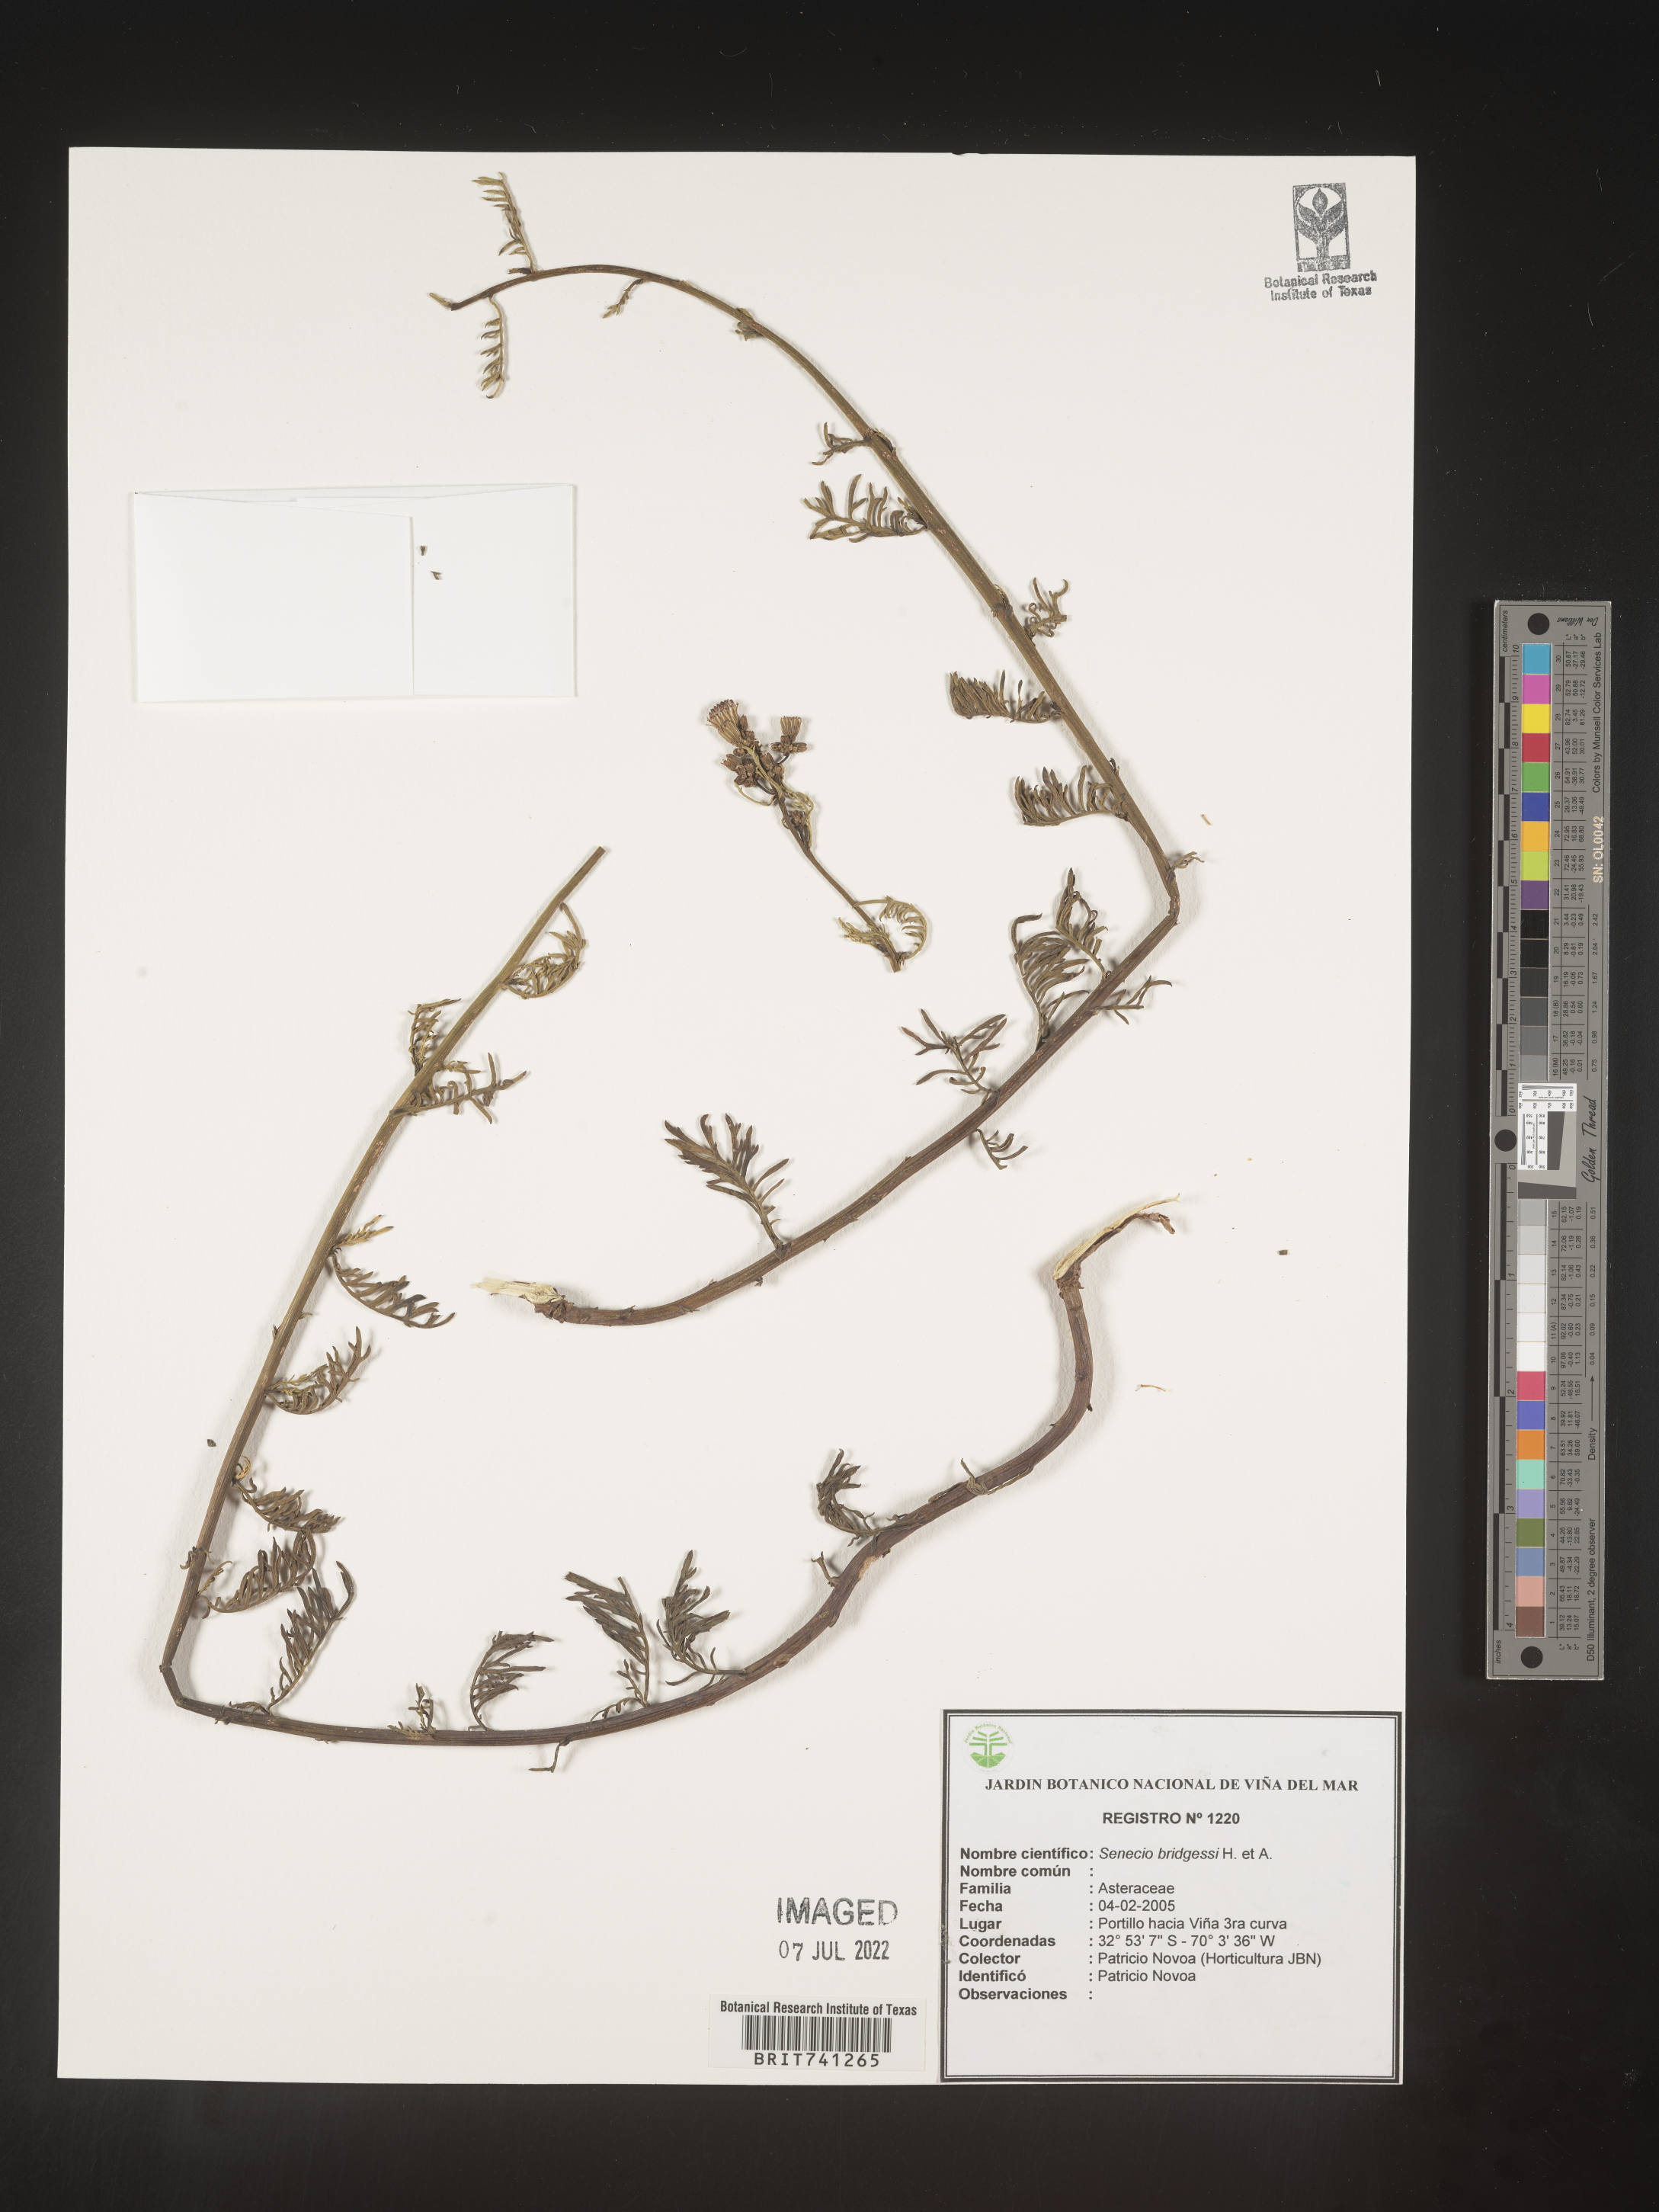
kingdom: Plantae
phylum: Tracheophyta
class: Magnoliopsida
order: Asterales
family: Asteraceae
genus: Senecio
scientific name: Senecio
